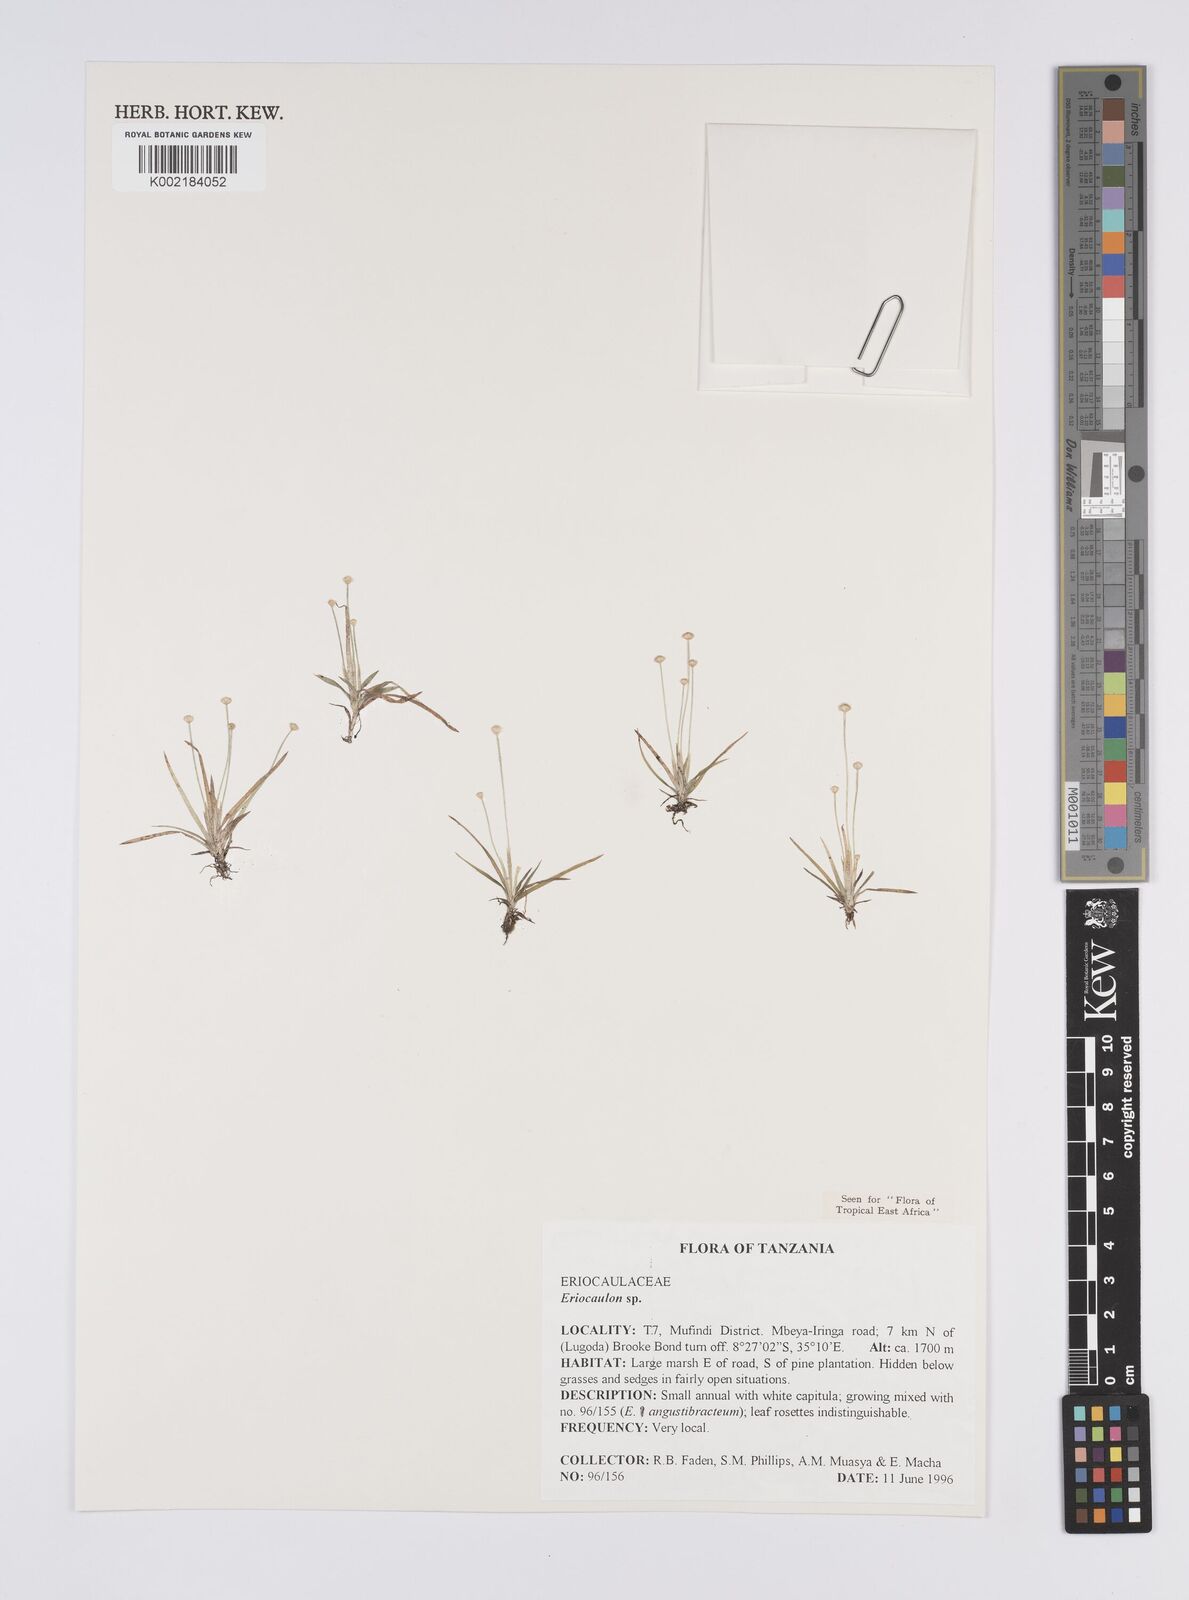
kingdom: Plantae
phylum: Tracheophyta
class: Liliopsida
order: Poales
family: Eriocaulaceae
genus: Eriocaulon
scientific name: Eriocaulon
